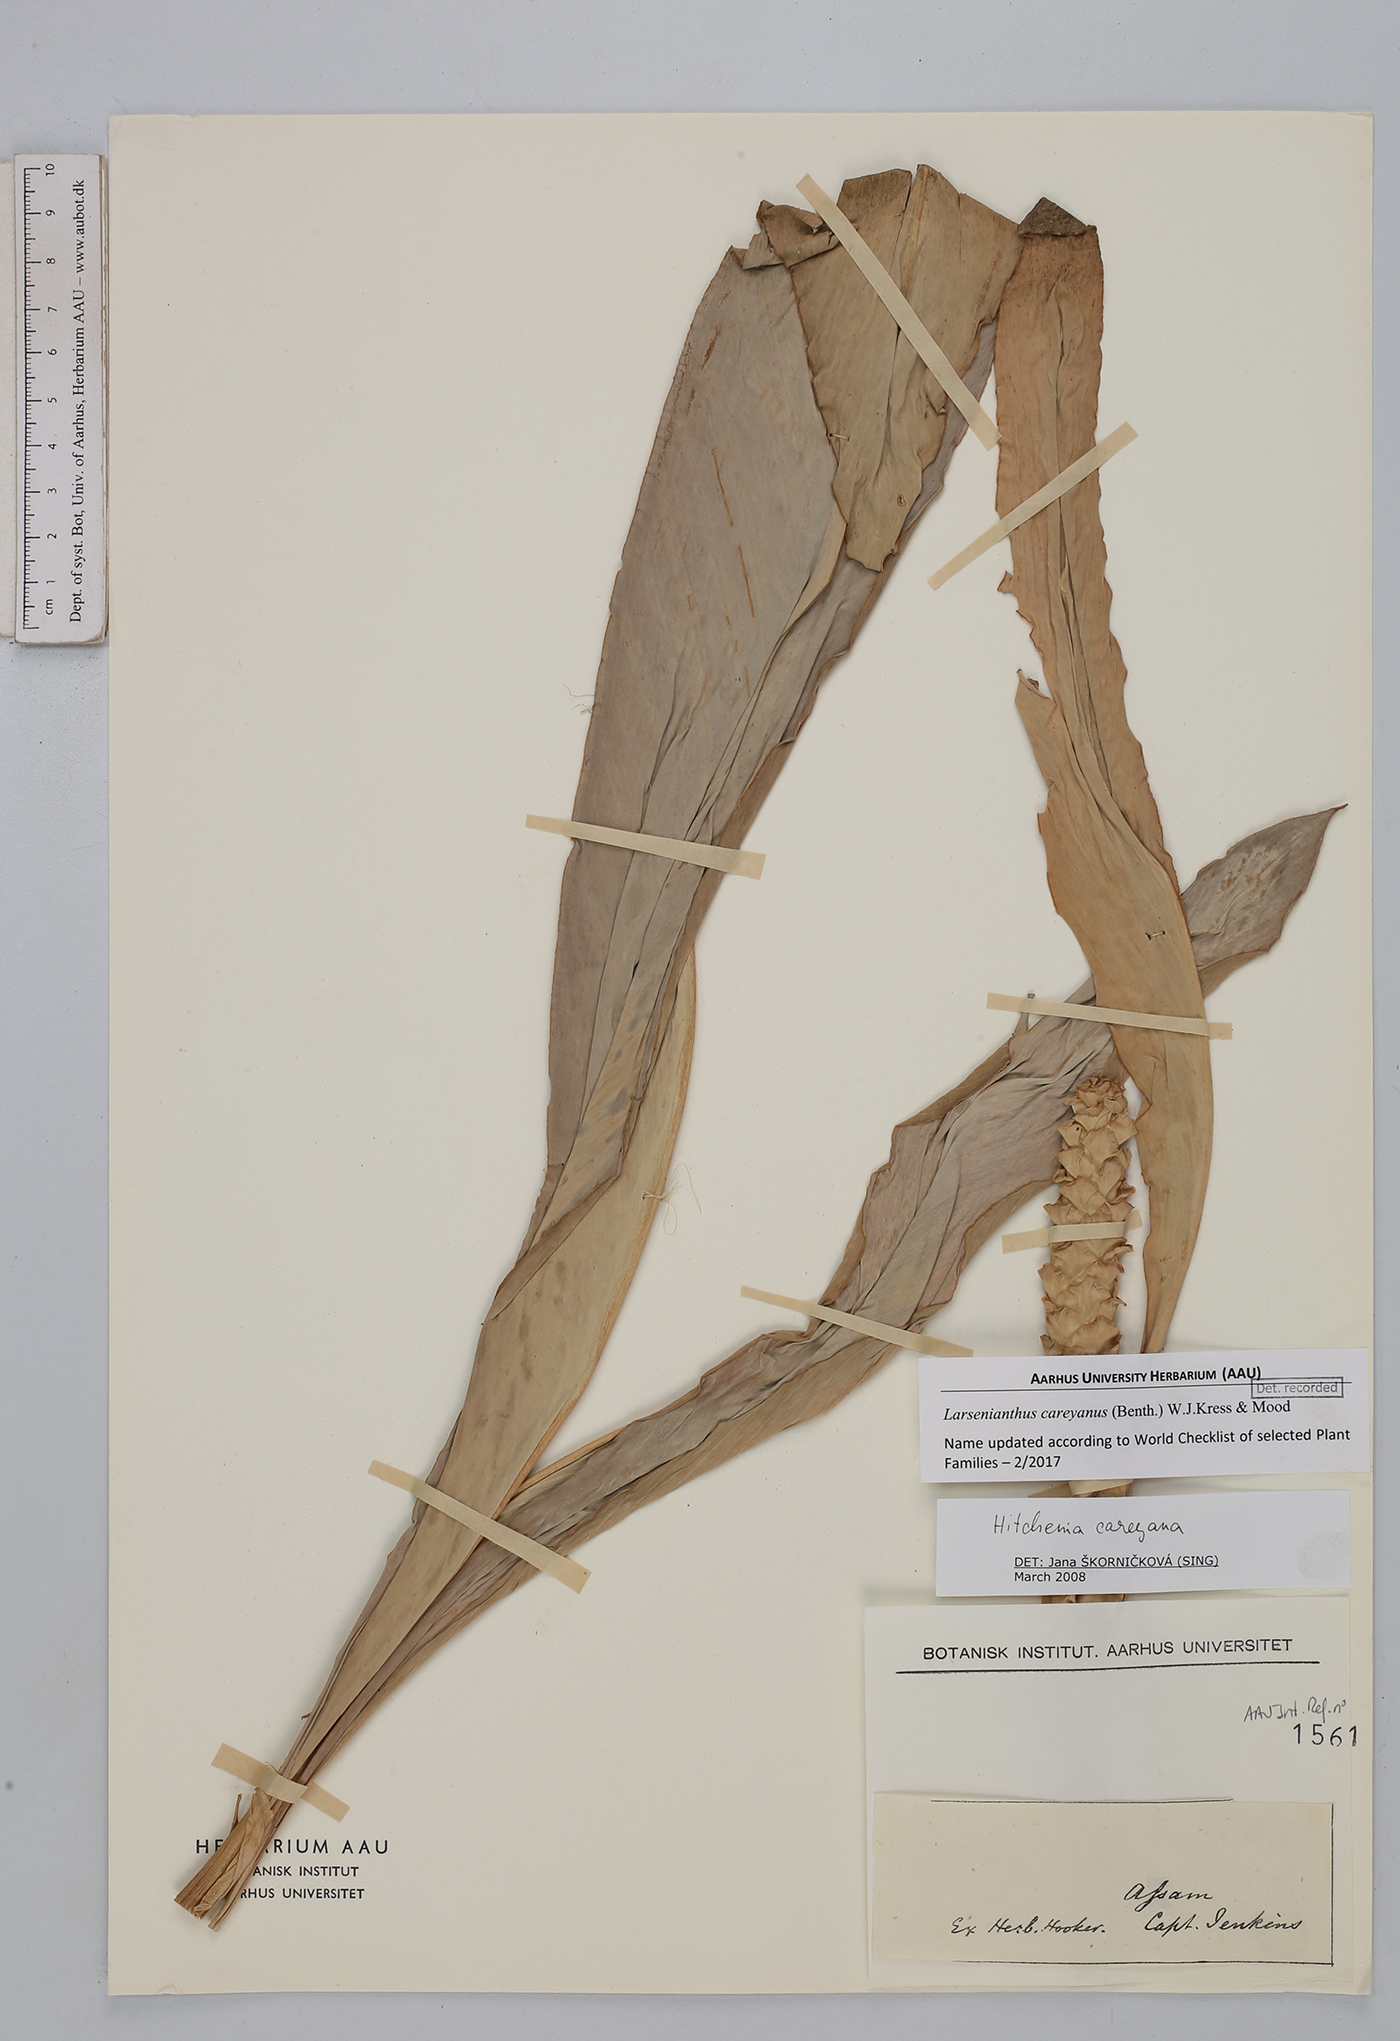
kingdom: Plantae
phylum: Tracheophyta
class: Liliopsida
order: Zingiberales
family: Zingiberaceae
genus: Larsenianthus
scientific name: Larsenianthus careyanus
